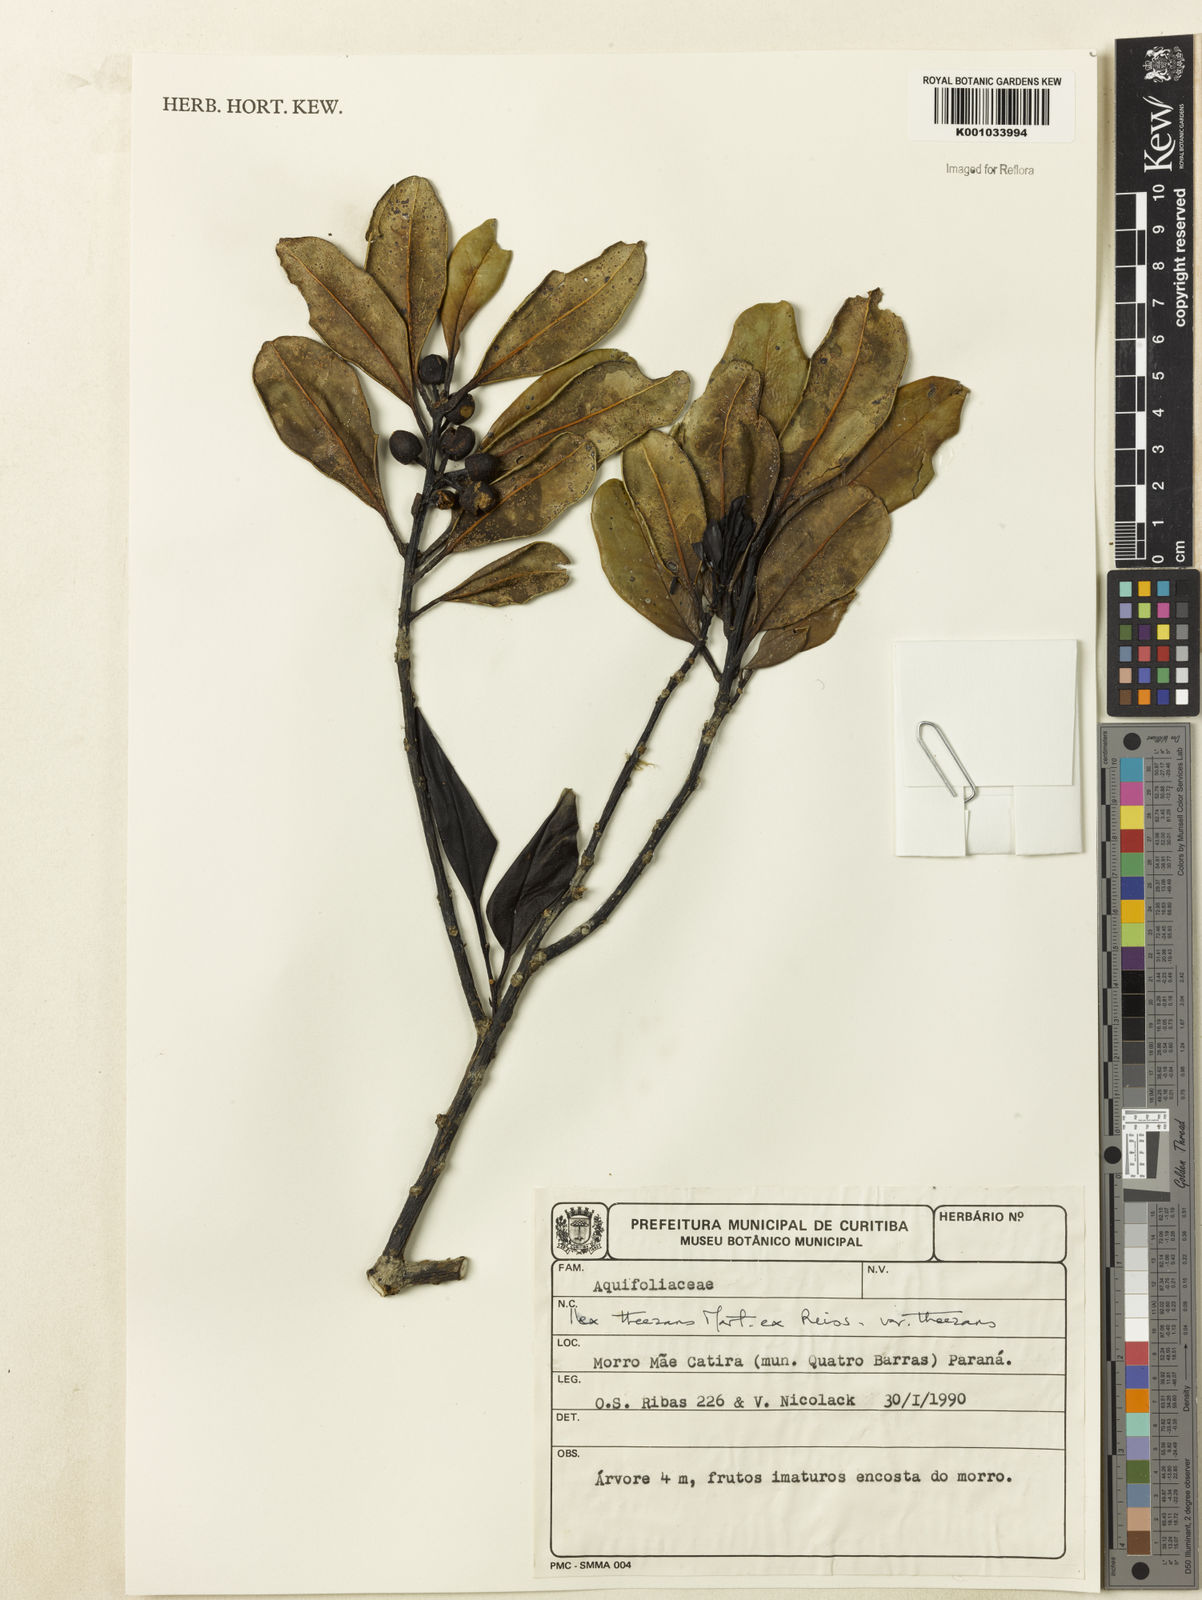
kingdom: Plantae
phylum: Tracheophyta
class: Magnoliopsida
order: Aquifoliales
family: Aquifoliaceae
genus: Ilex
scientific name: Ilex
